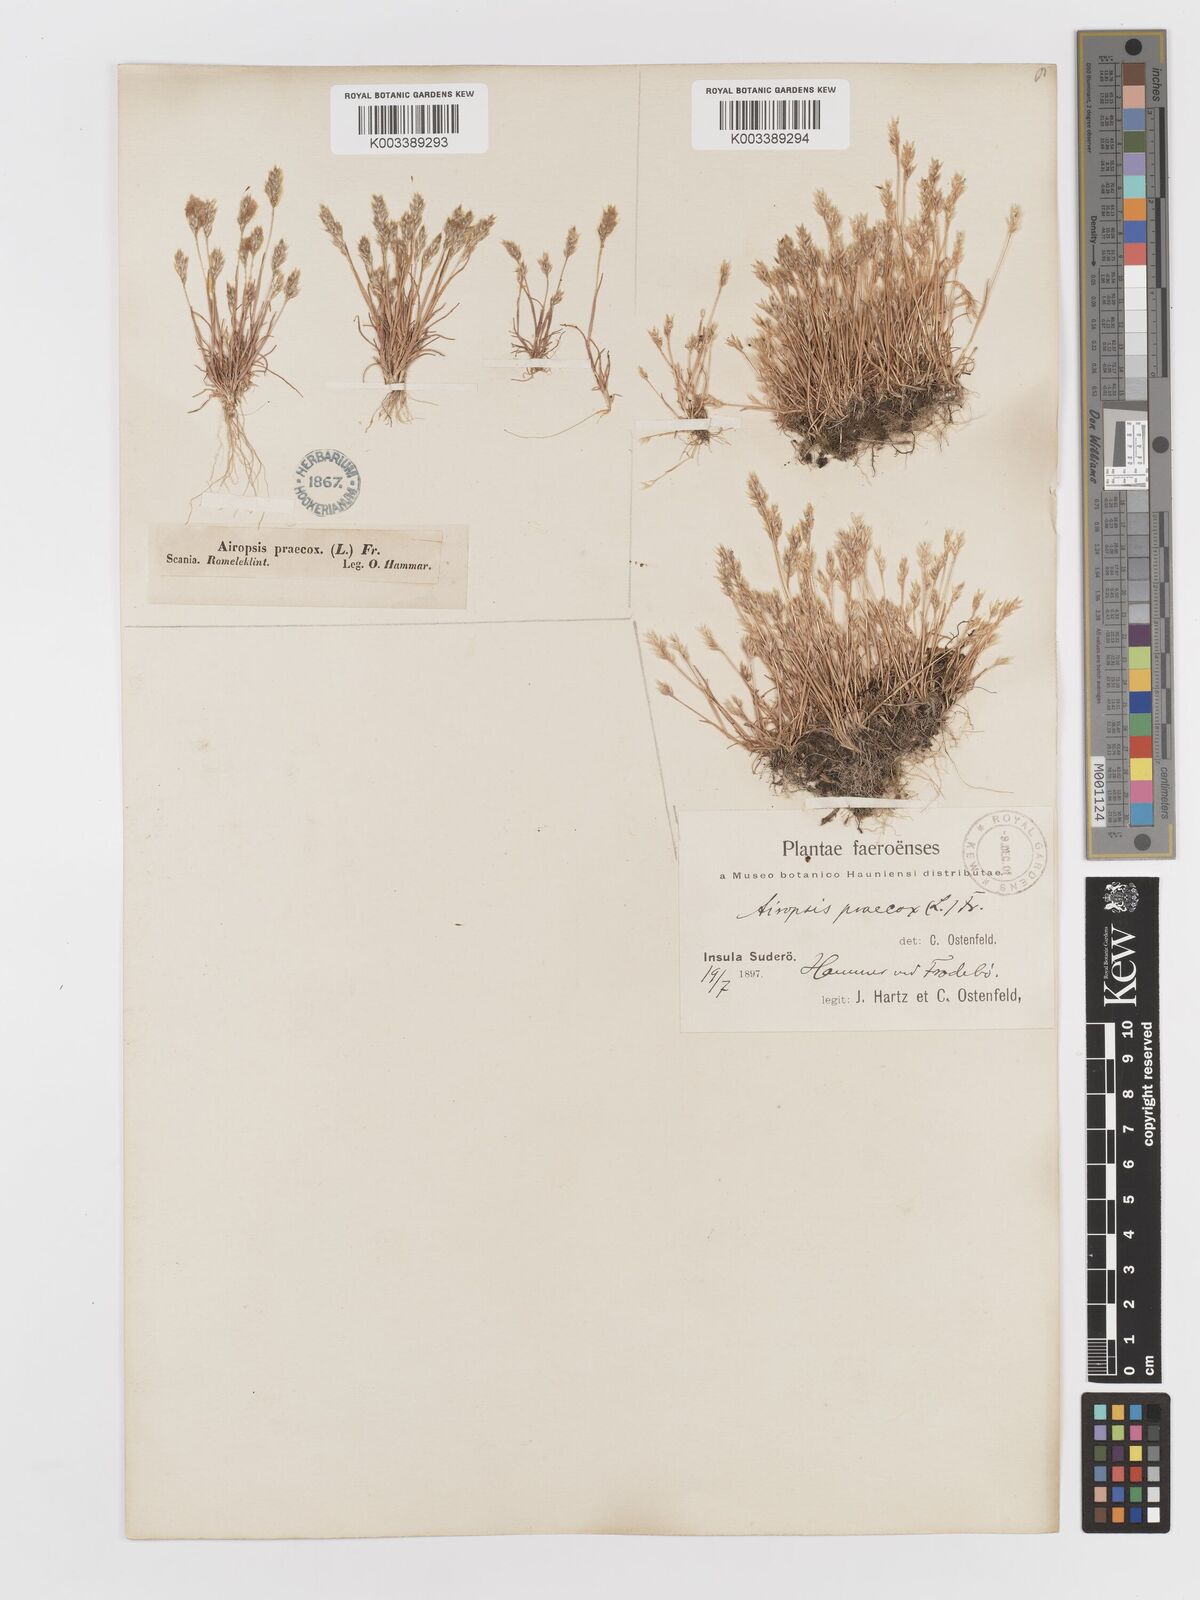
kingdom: Plantae
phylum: Tracheophyta
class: Liliopsida
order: Poales
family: Poaceae
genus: Aira
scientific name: Aira praecox
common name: Early hair-grass
